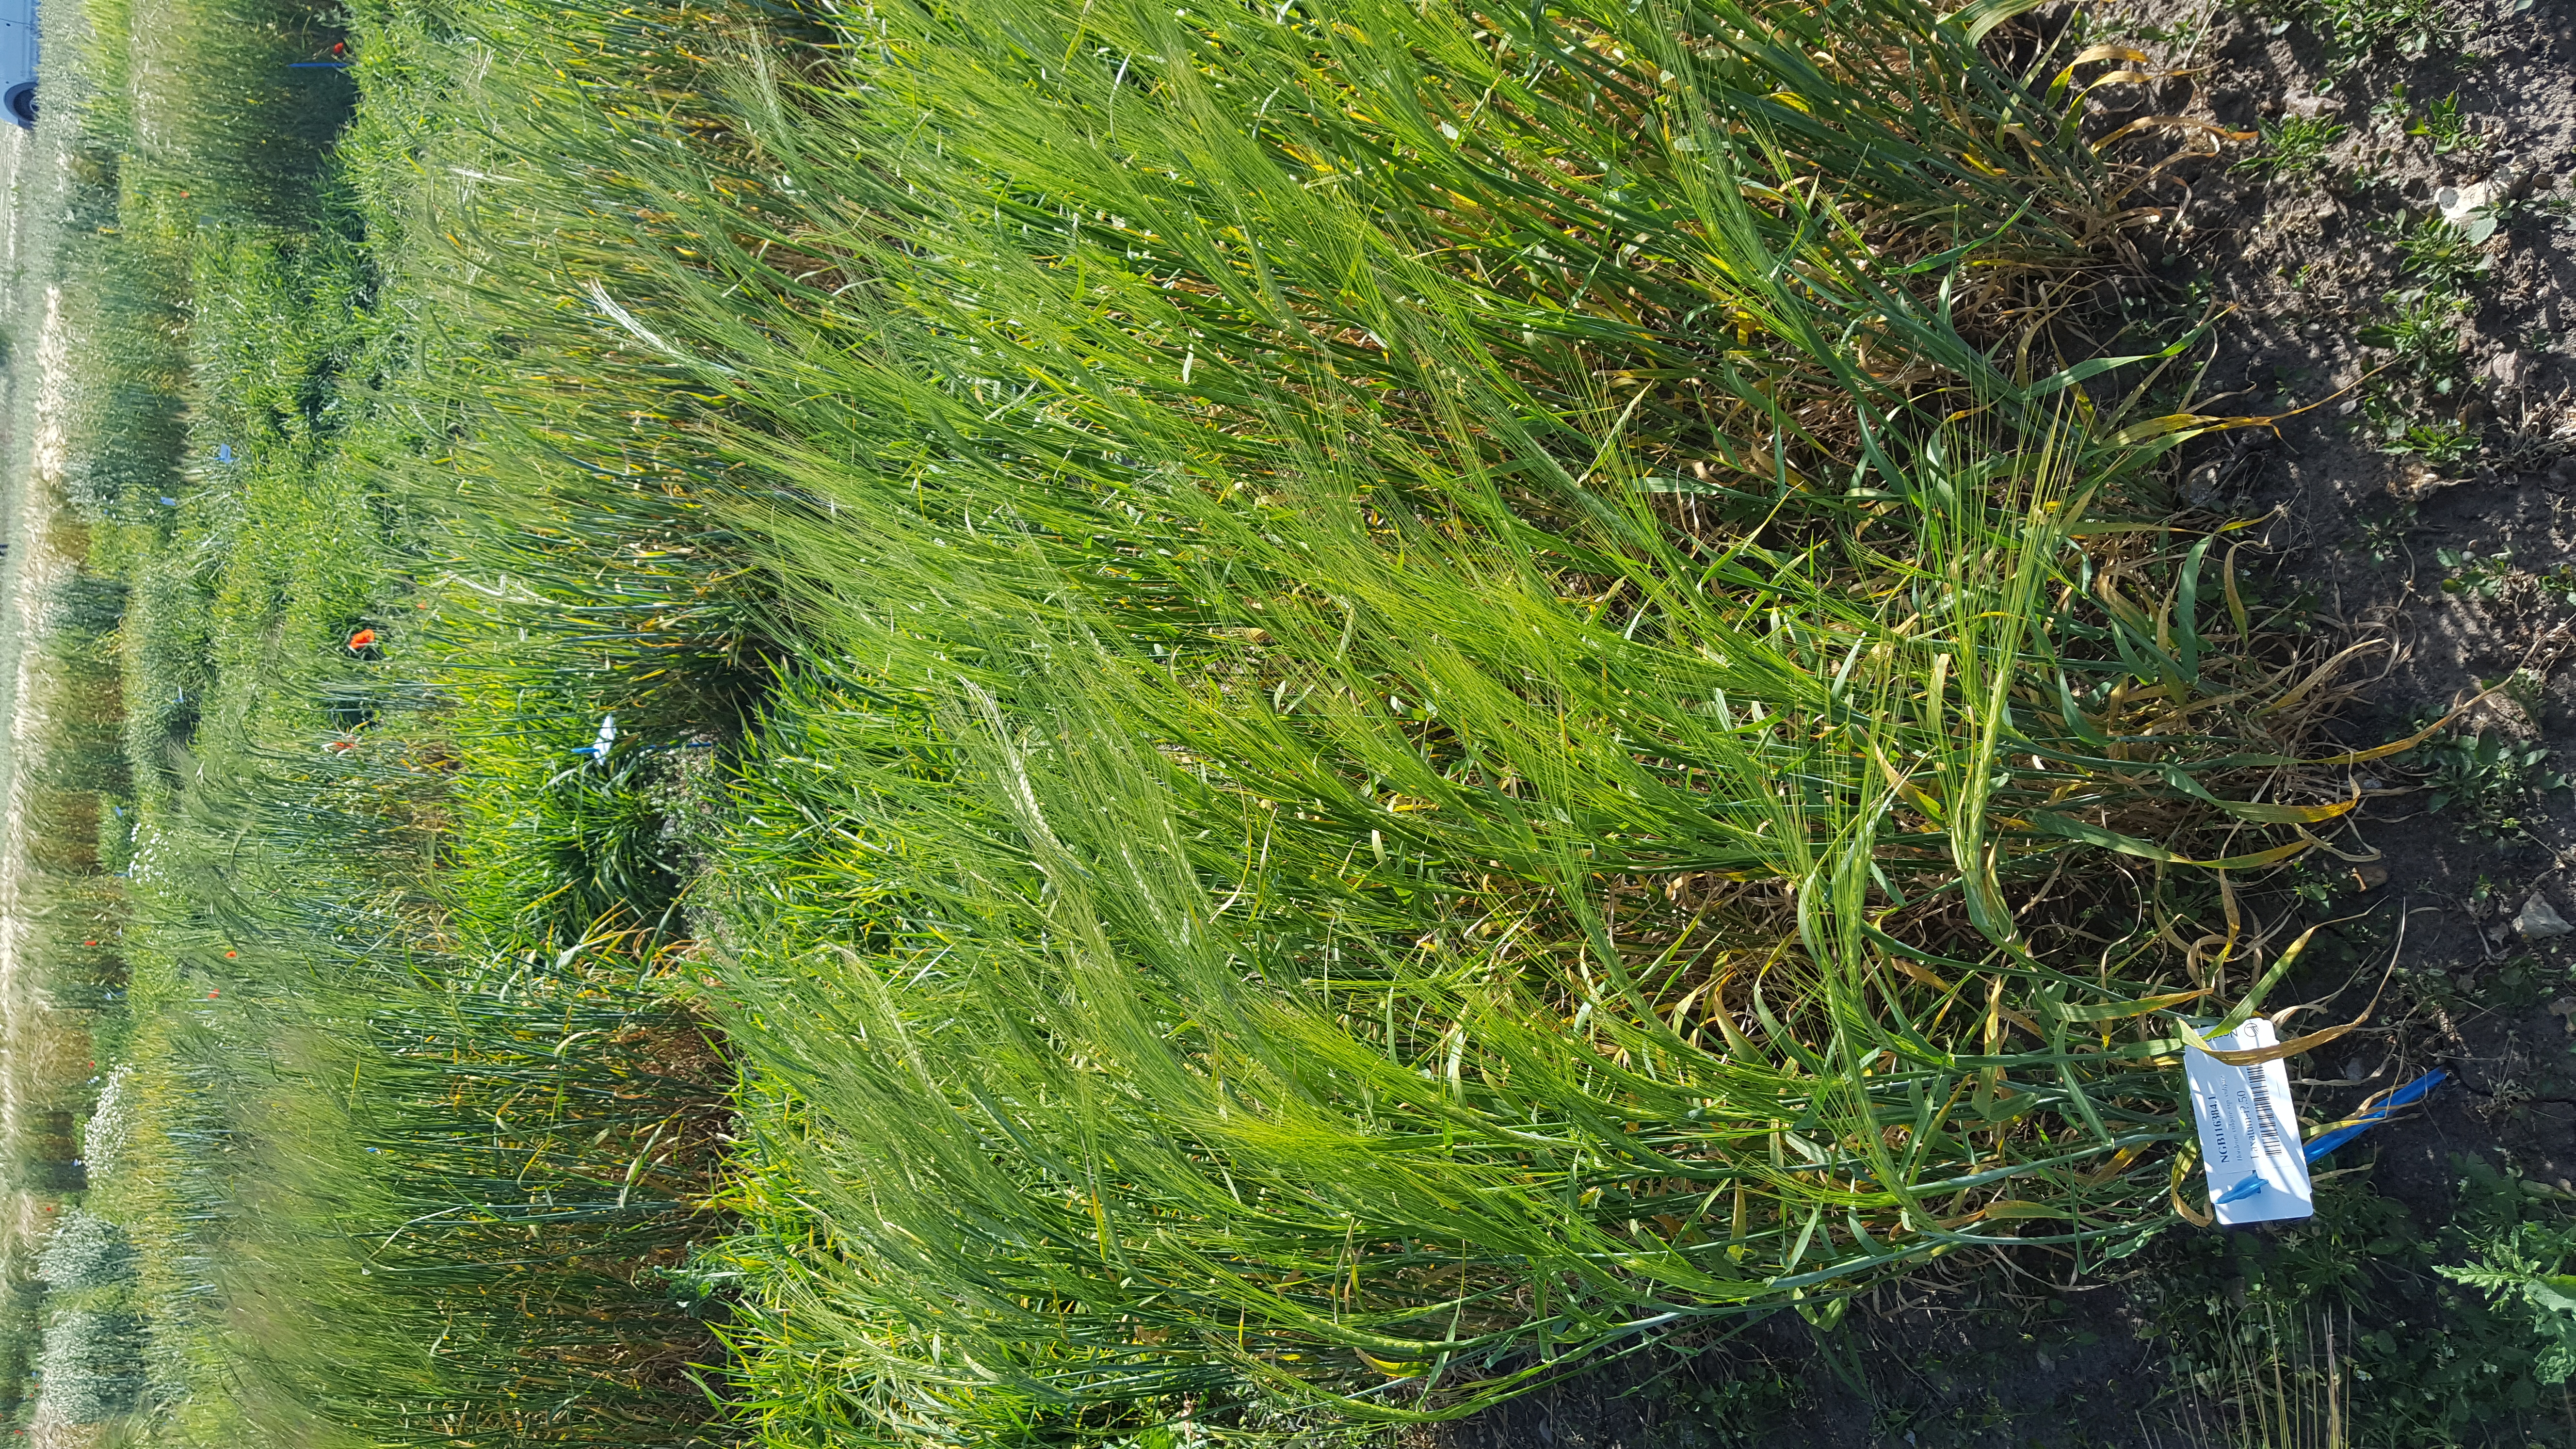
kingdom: Plantae
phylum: Tracheophyta
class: Liliopsida
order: Poales
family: Poaceae
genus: Hordeum
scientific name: Hordeum vulgare
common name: Common barley
